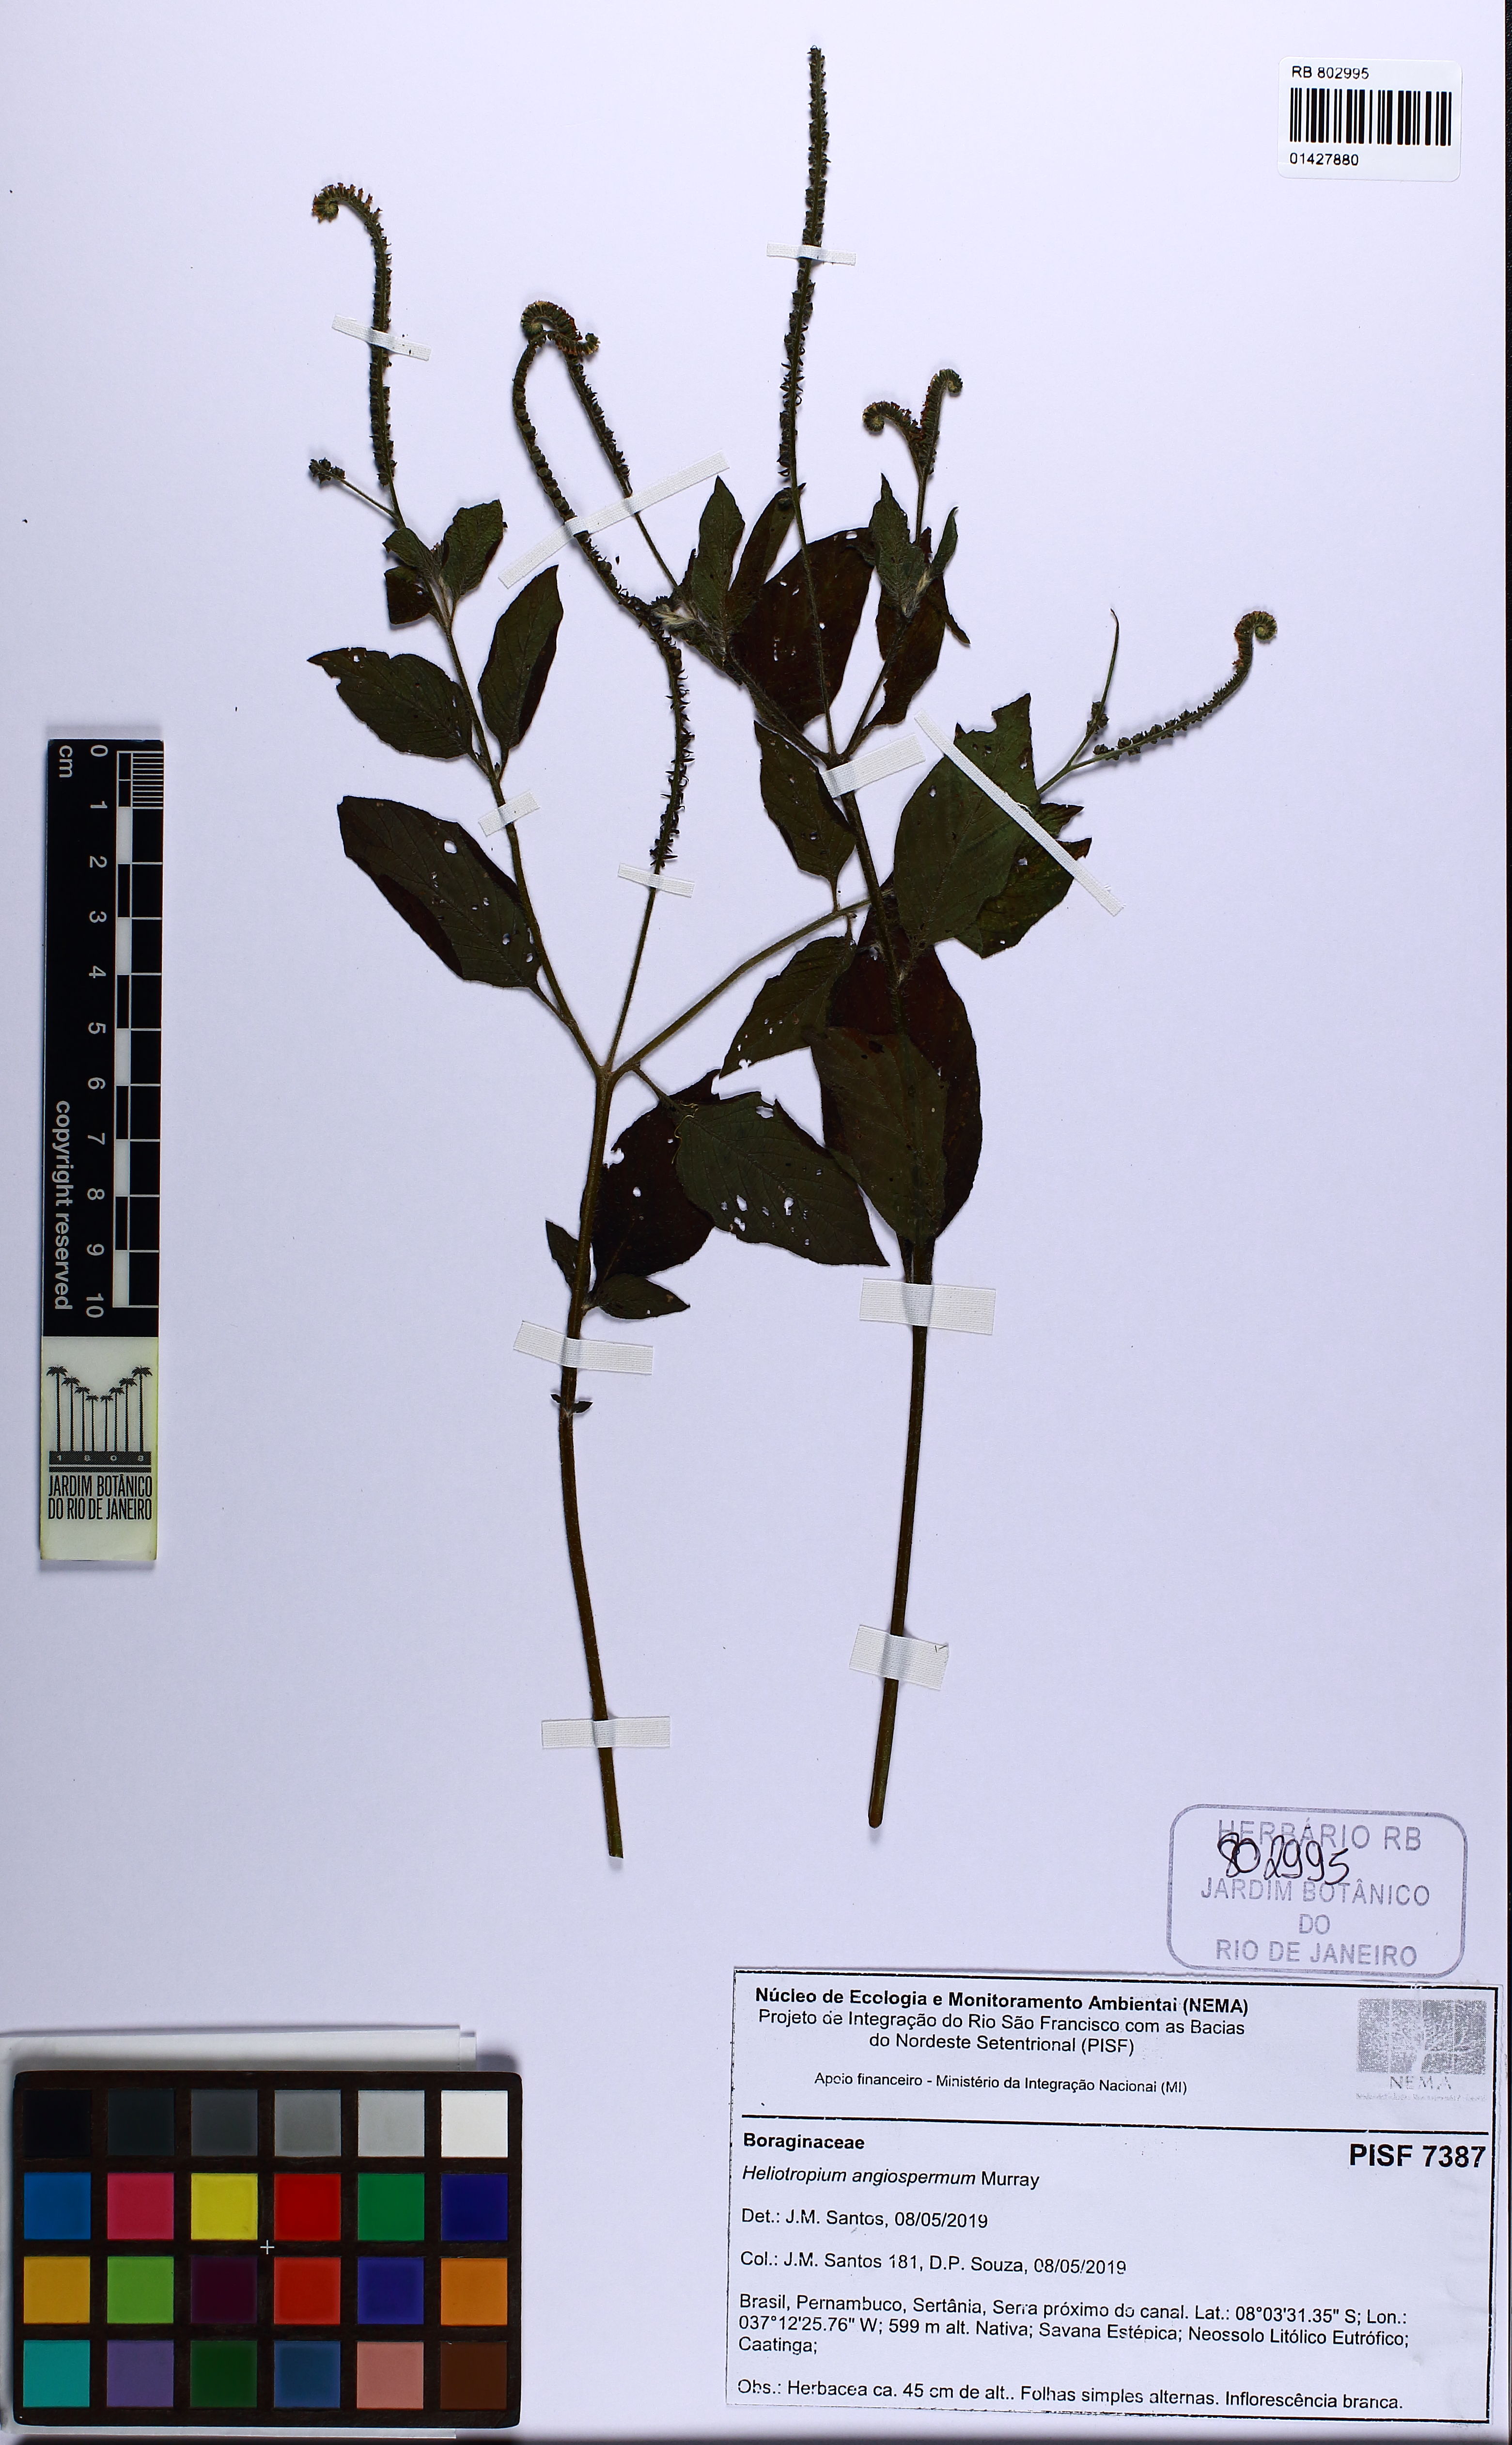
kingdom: Plantae
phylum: Tracheophyta
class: Magnoliopsida
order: Boraginales
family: Heliotropiaceae
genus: Heliotropium
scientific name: Heliotropium angiospermum
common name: Eye bright
